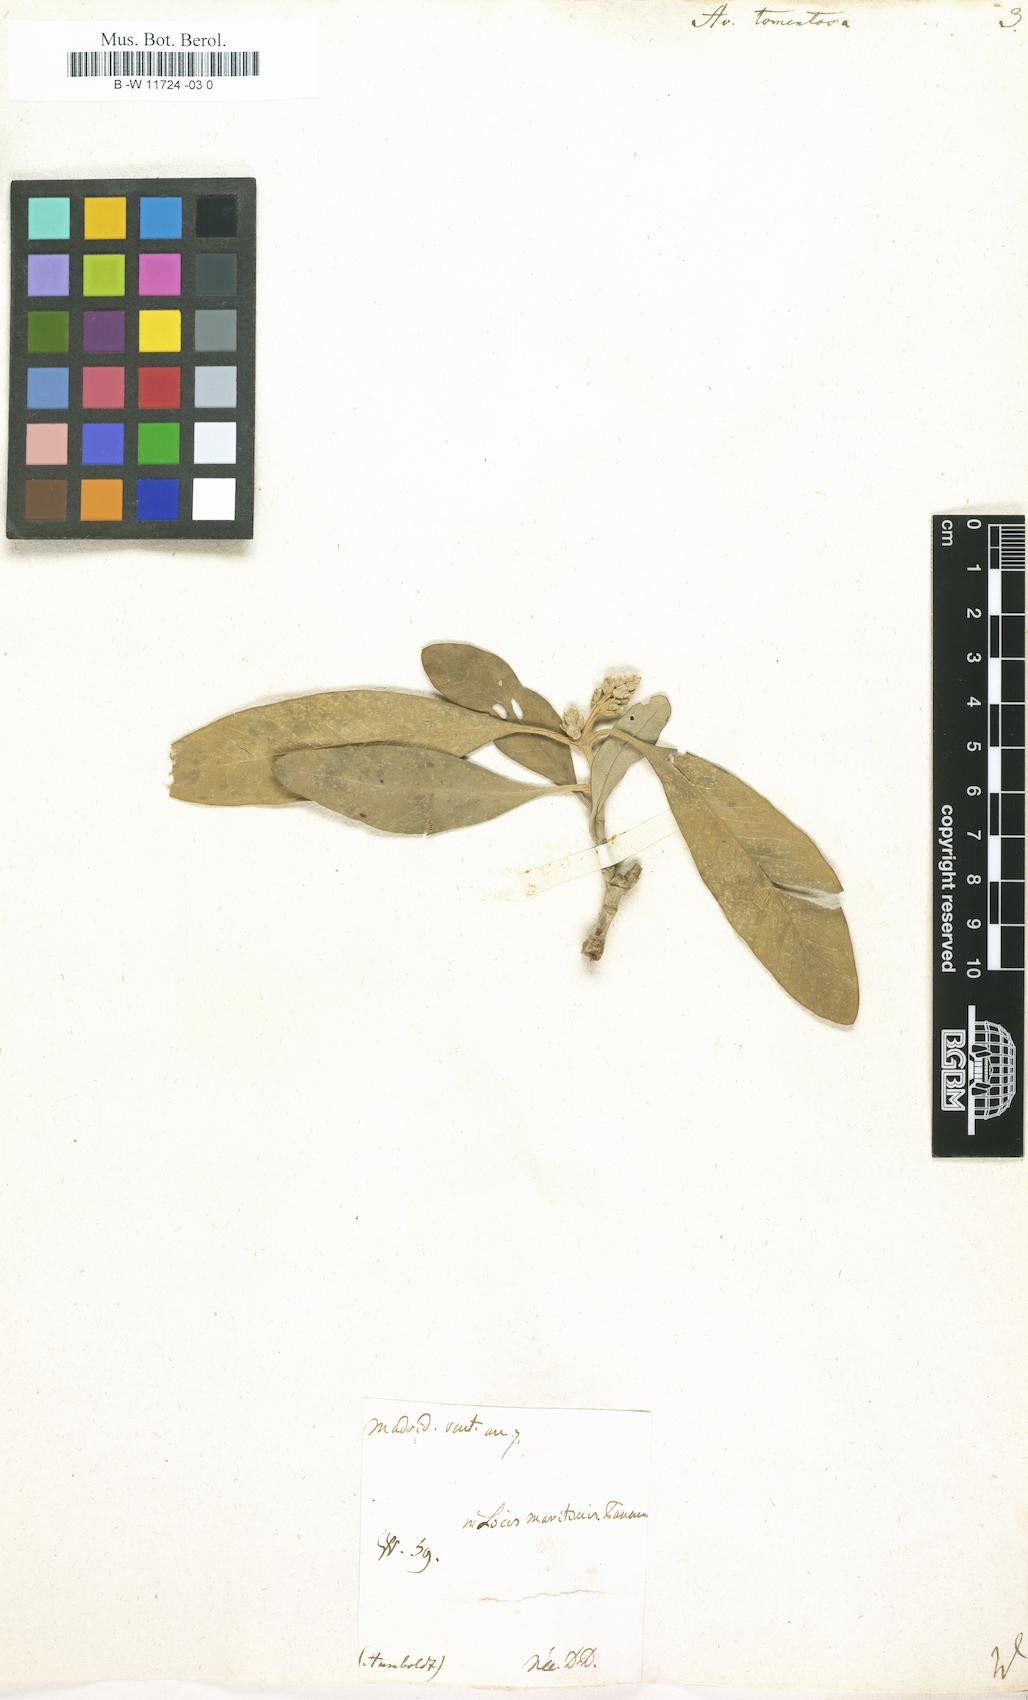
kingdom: Plantae
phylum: Tracheophyta
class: Magnoliopsida
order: Lamiales
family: Acanthaceae
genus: Avicennia
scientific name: Avicennia
